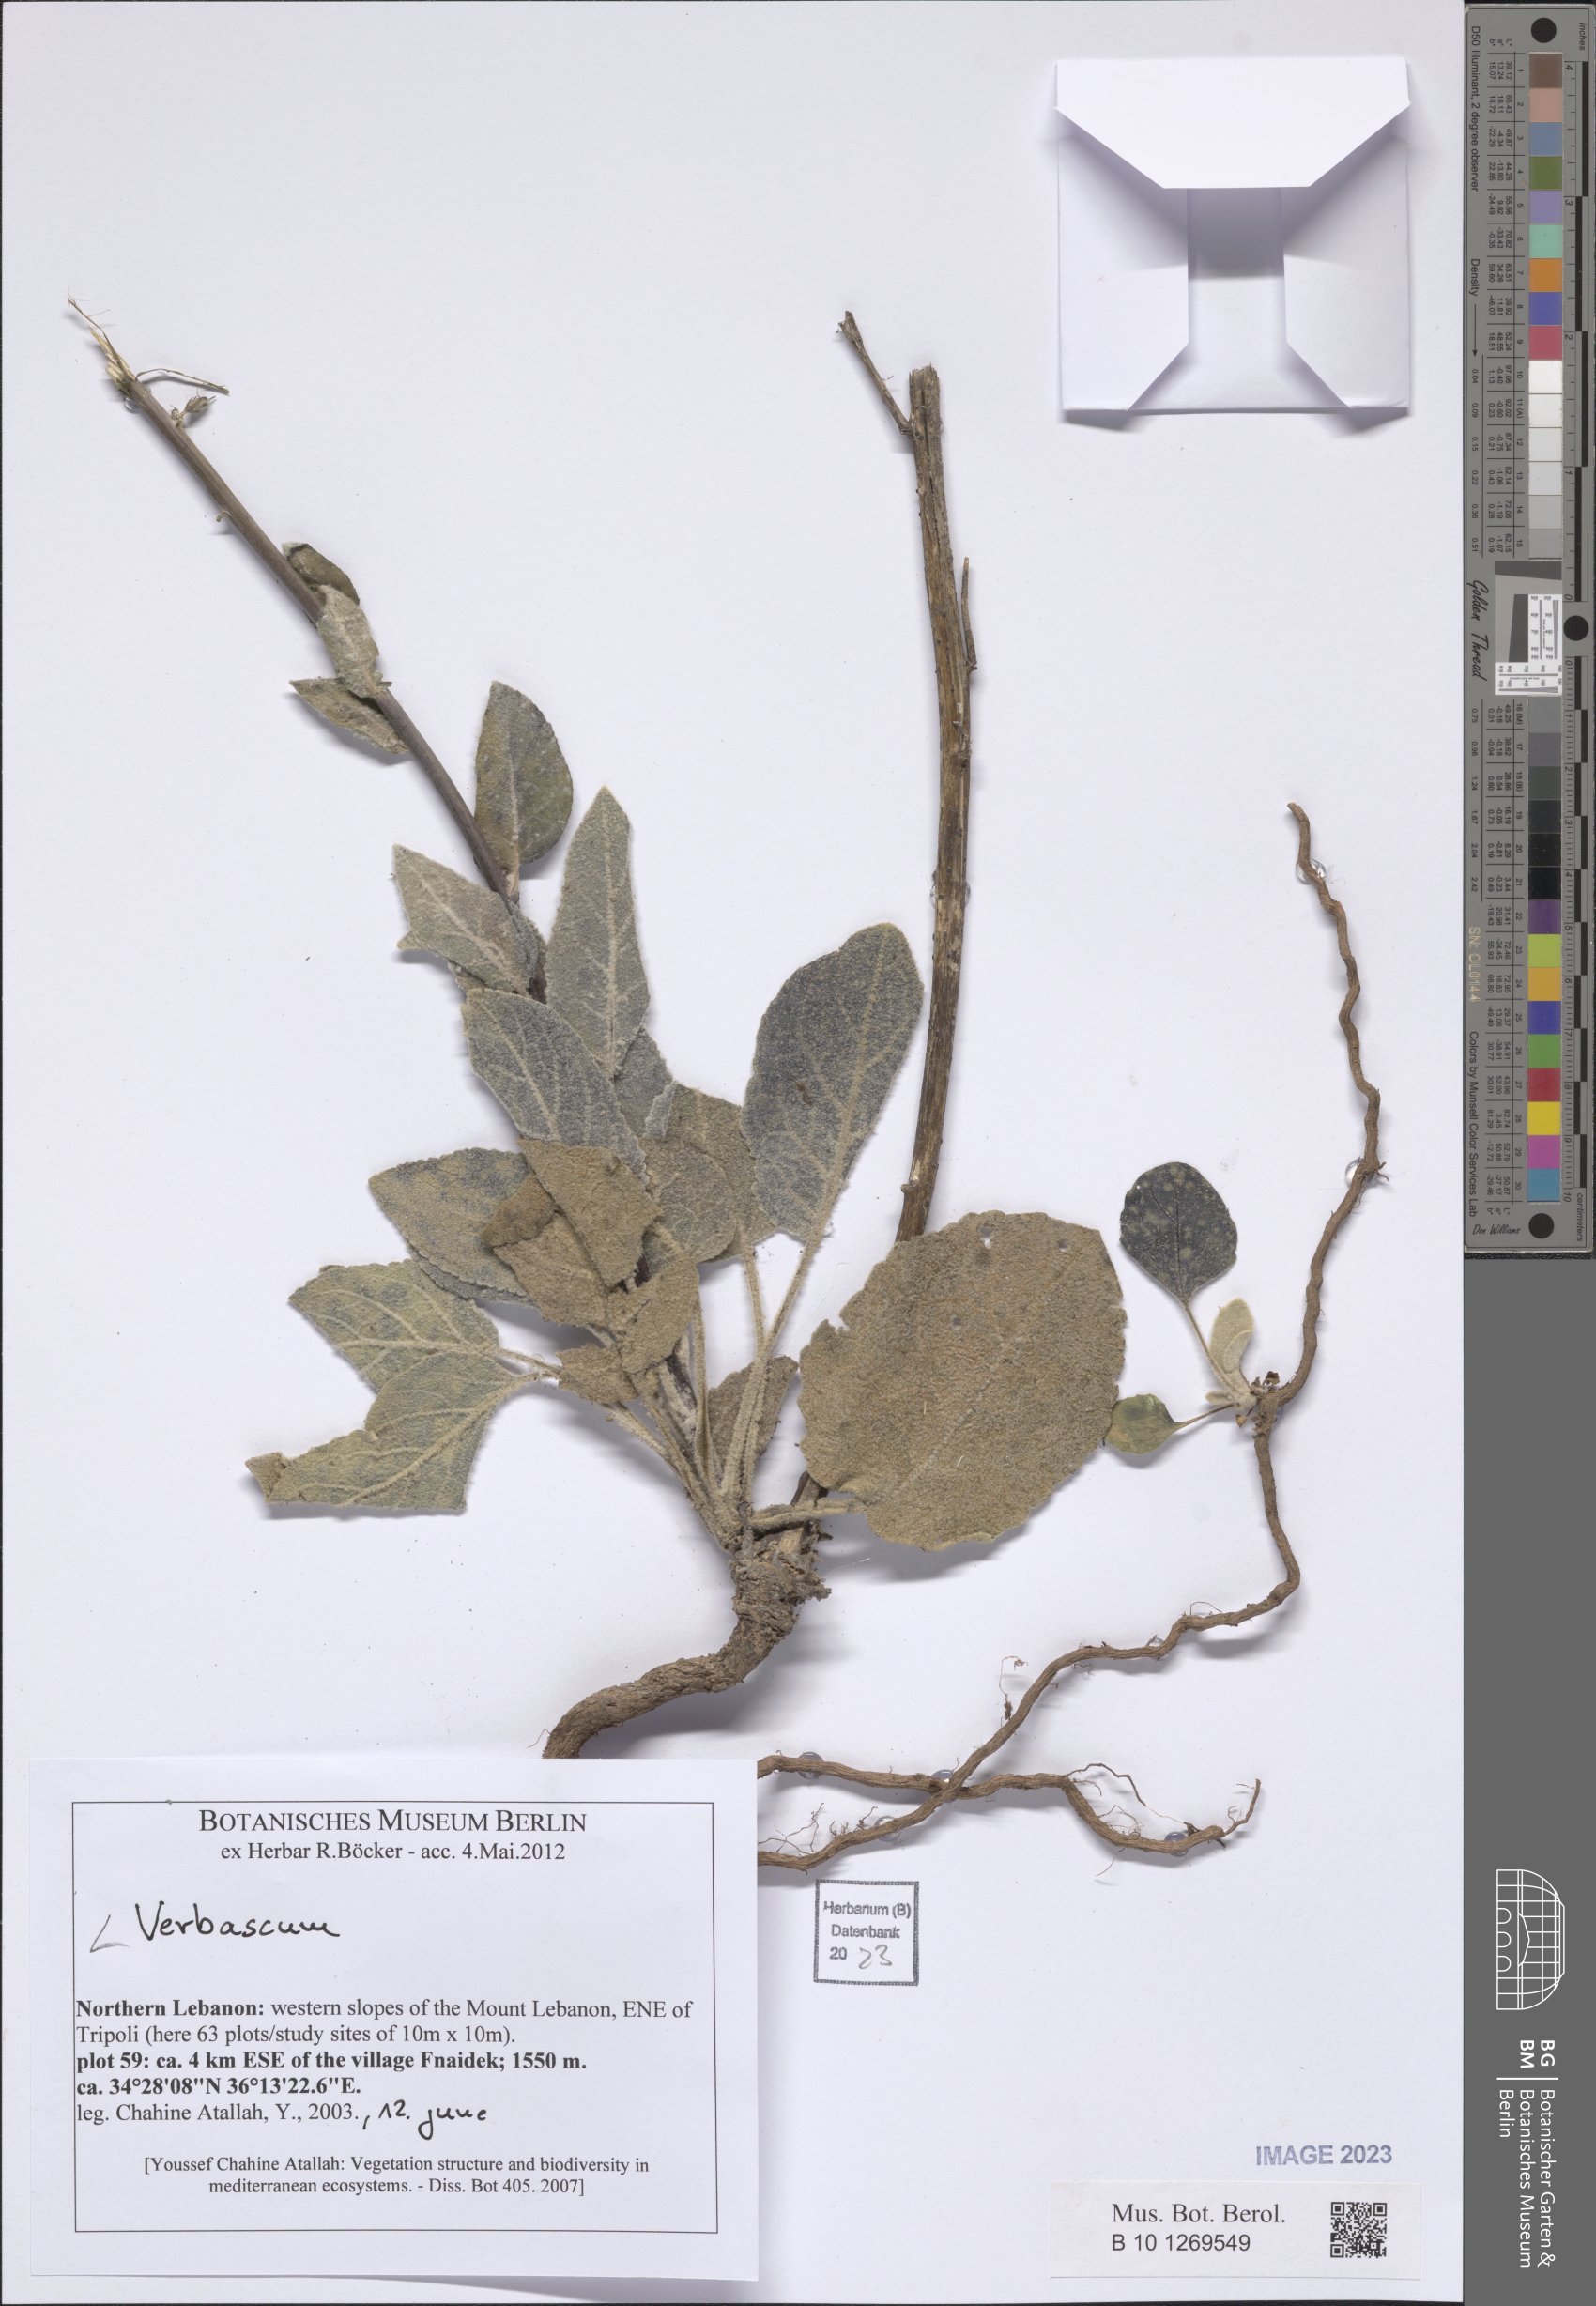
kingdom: Plantae
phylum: Tracheophyta
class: Magnoliopsida
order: Lamiales
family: Scrophulariaceae
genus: Verbascum
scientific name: Verbascum
